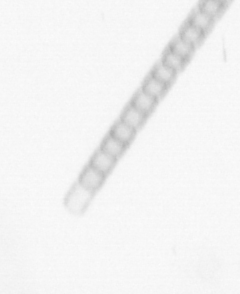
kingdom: Chromista
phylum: Ochrophyta
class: Bacillariophyceae
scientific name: Bacillariophyceae
